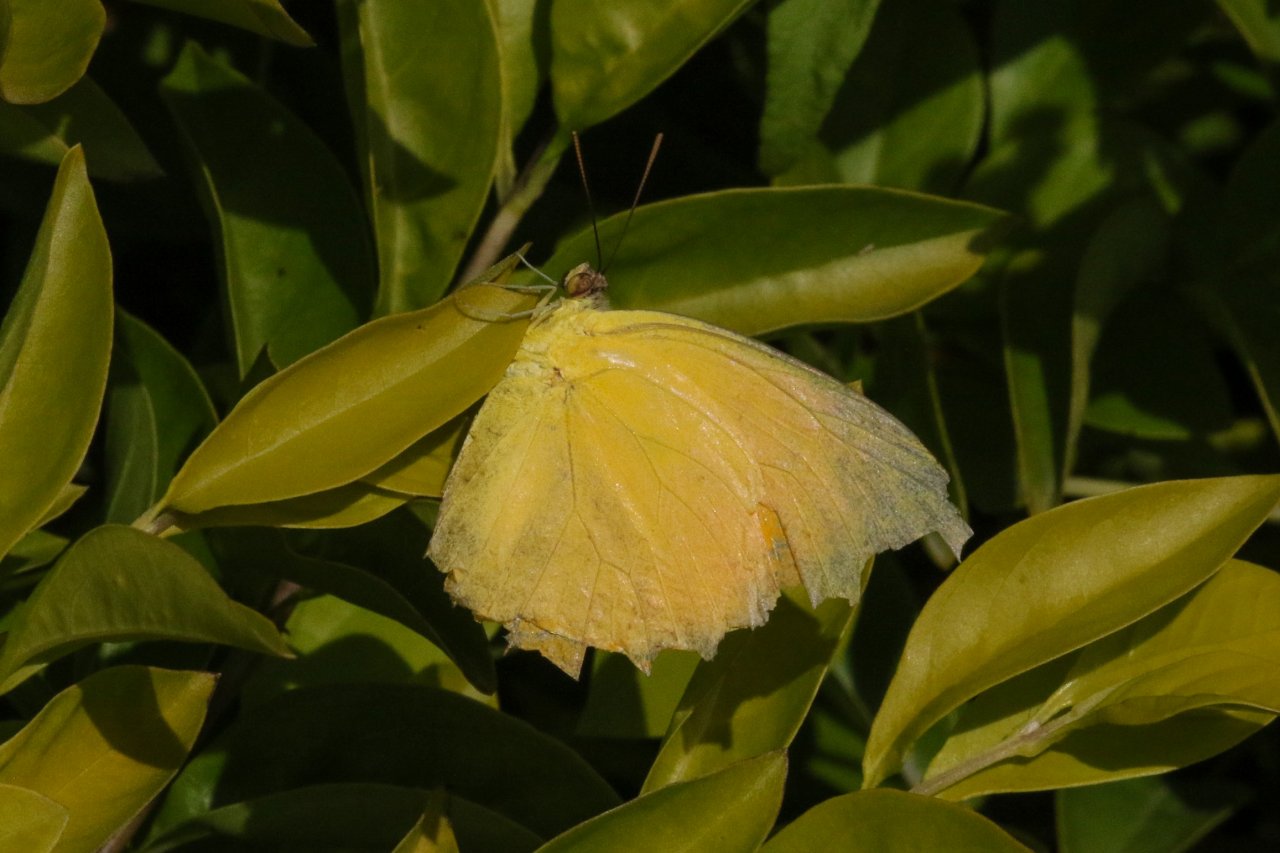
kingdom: Animalia
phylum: Arthropoda
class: Insecta
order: Lepidoptera
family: Pieridae
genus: Phoebis
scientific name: Phoebis agarithe
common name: Large Orange Sulphur
